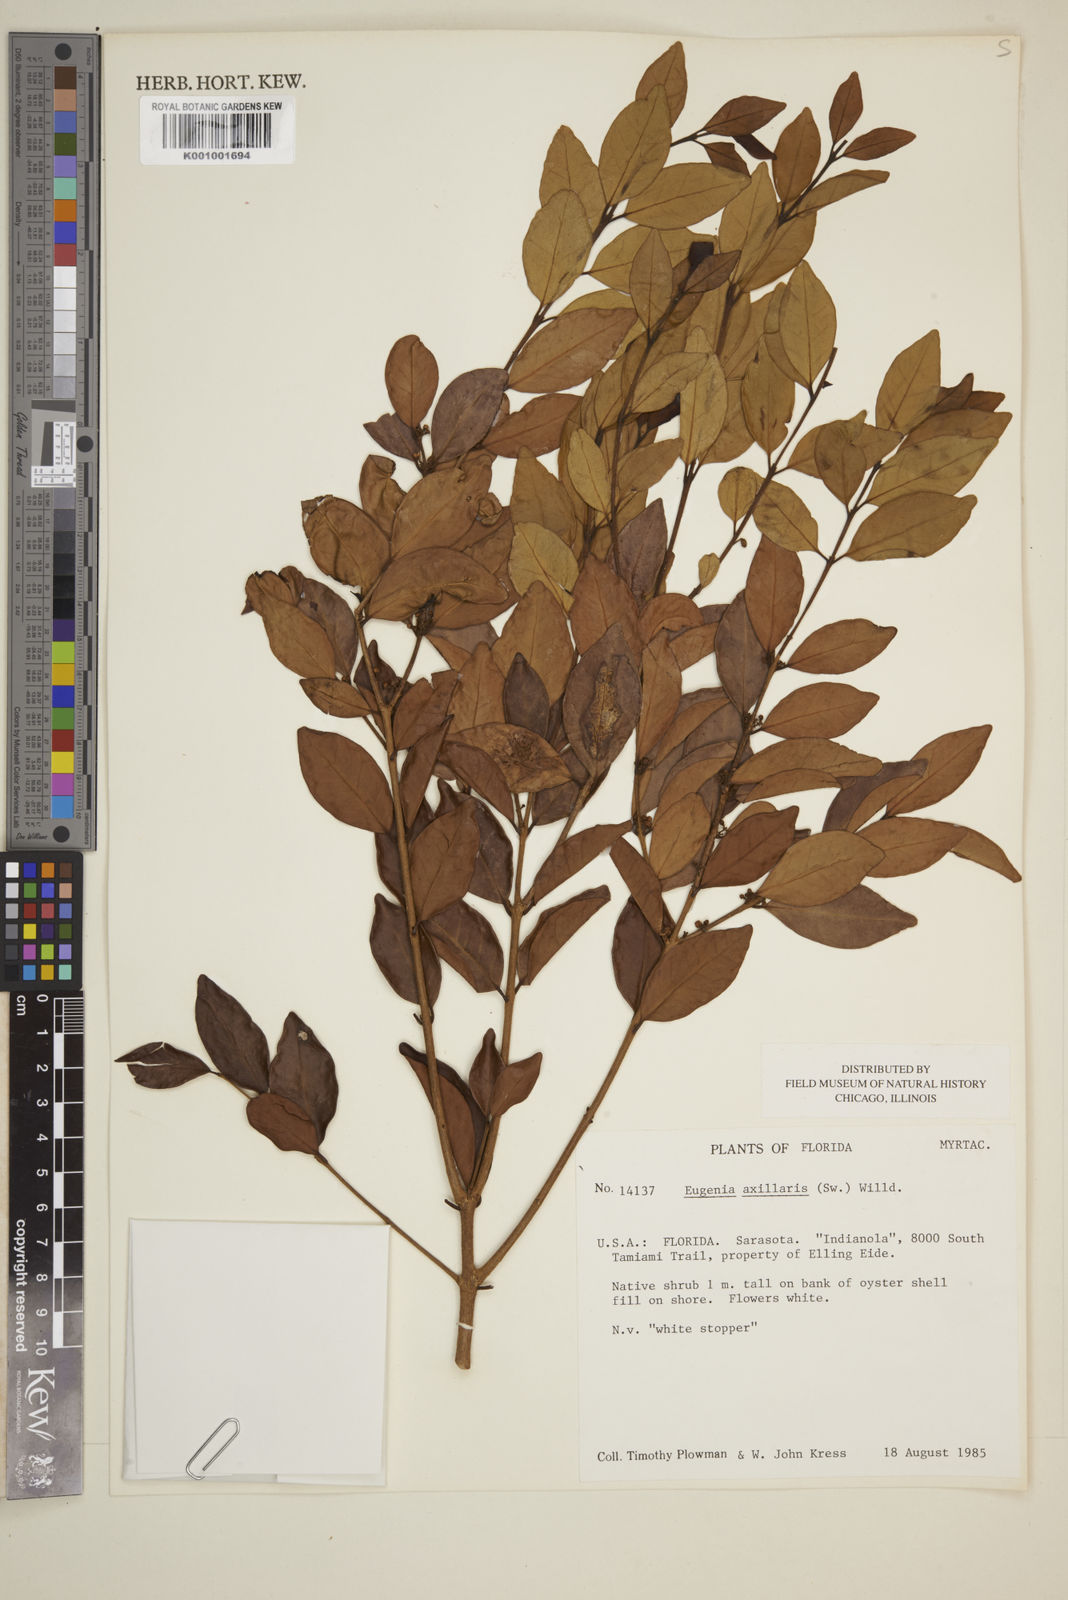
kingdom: Plantae
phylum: Tracheophyta
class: Magnoliopsida
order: Myrtales
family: Myrtaceae
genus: Eugenia
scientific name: Eugenia axillaris
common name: Choaky berry
